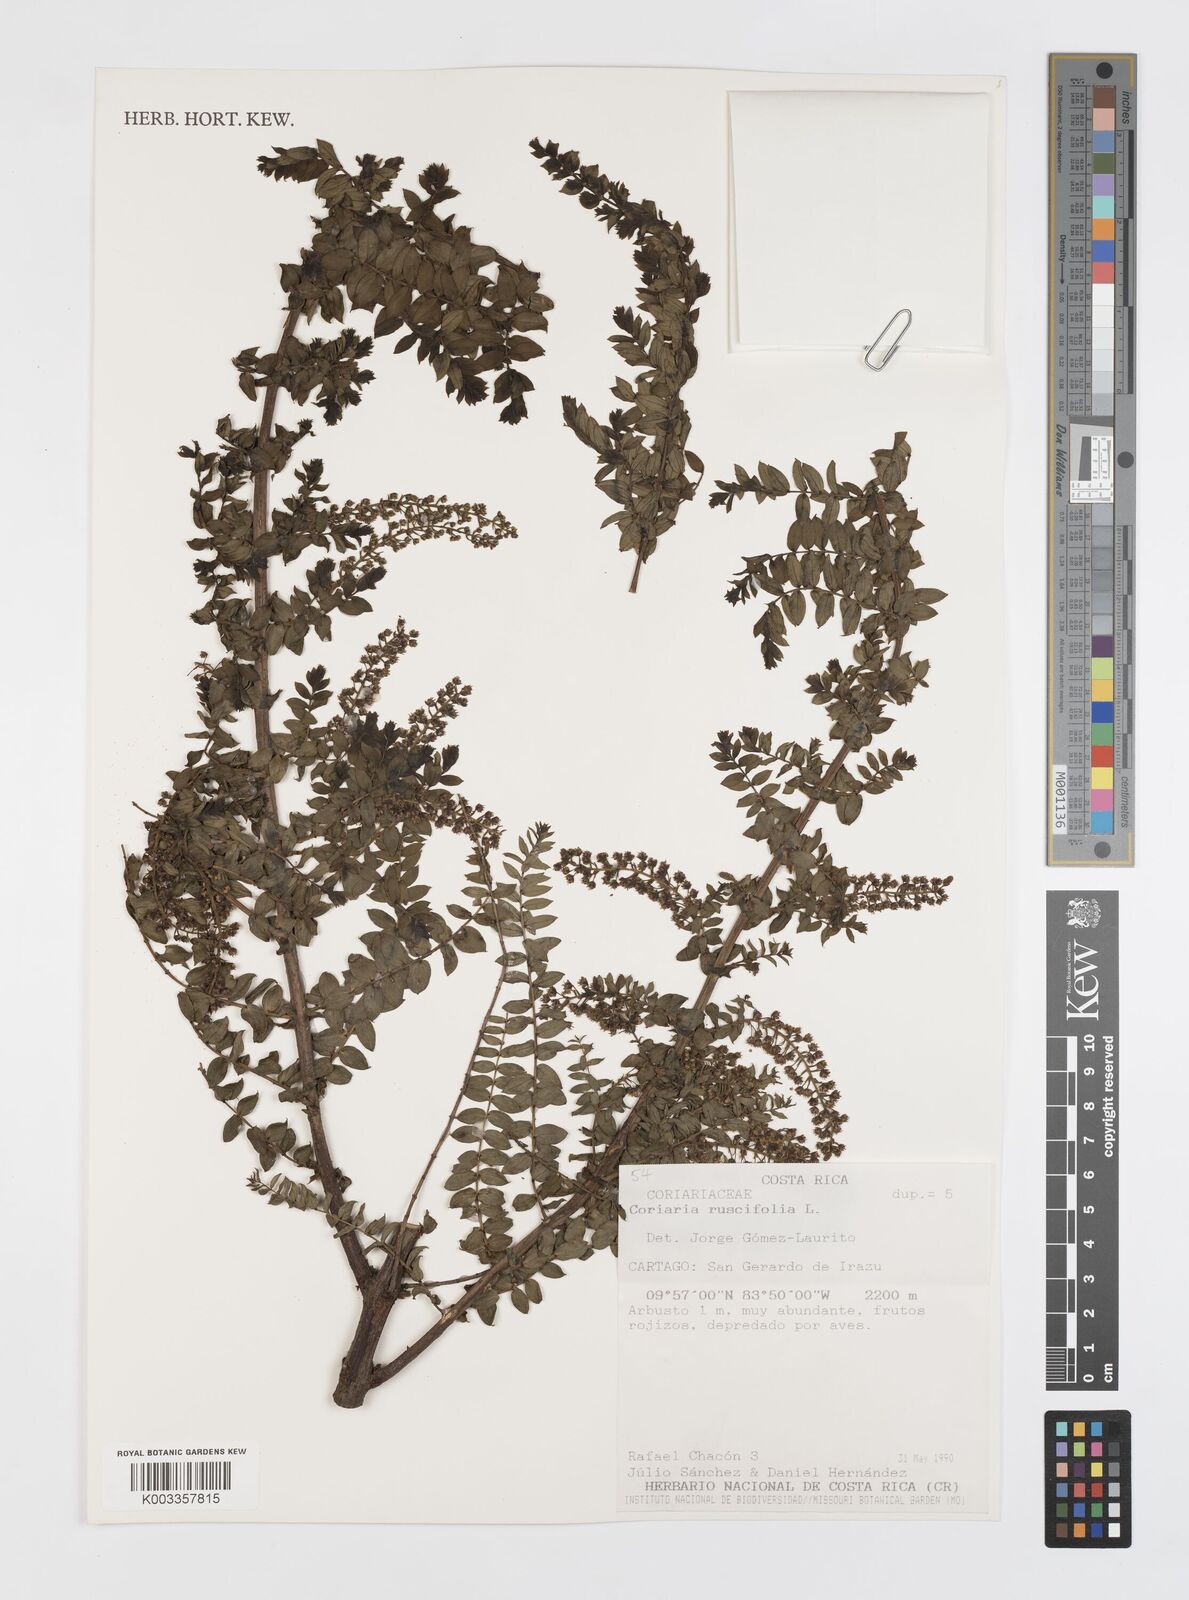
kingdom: Plantae
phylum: Tracheophyta
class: Magnoliopsida
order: Cucurbitales
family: Coriariaceae
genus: Coriaria
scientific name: Coriaria microphylla
